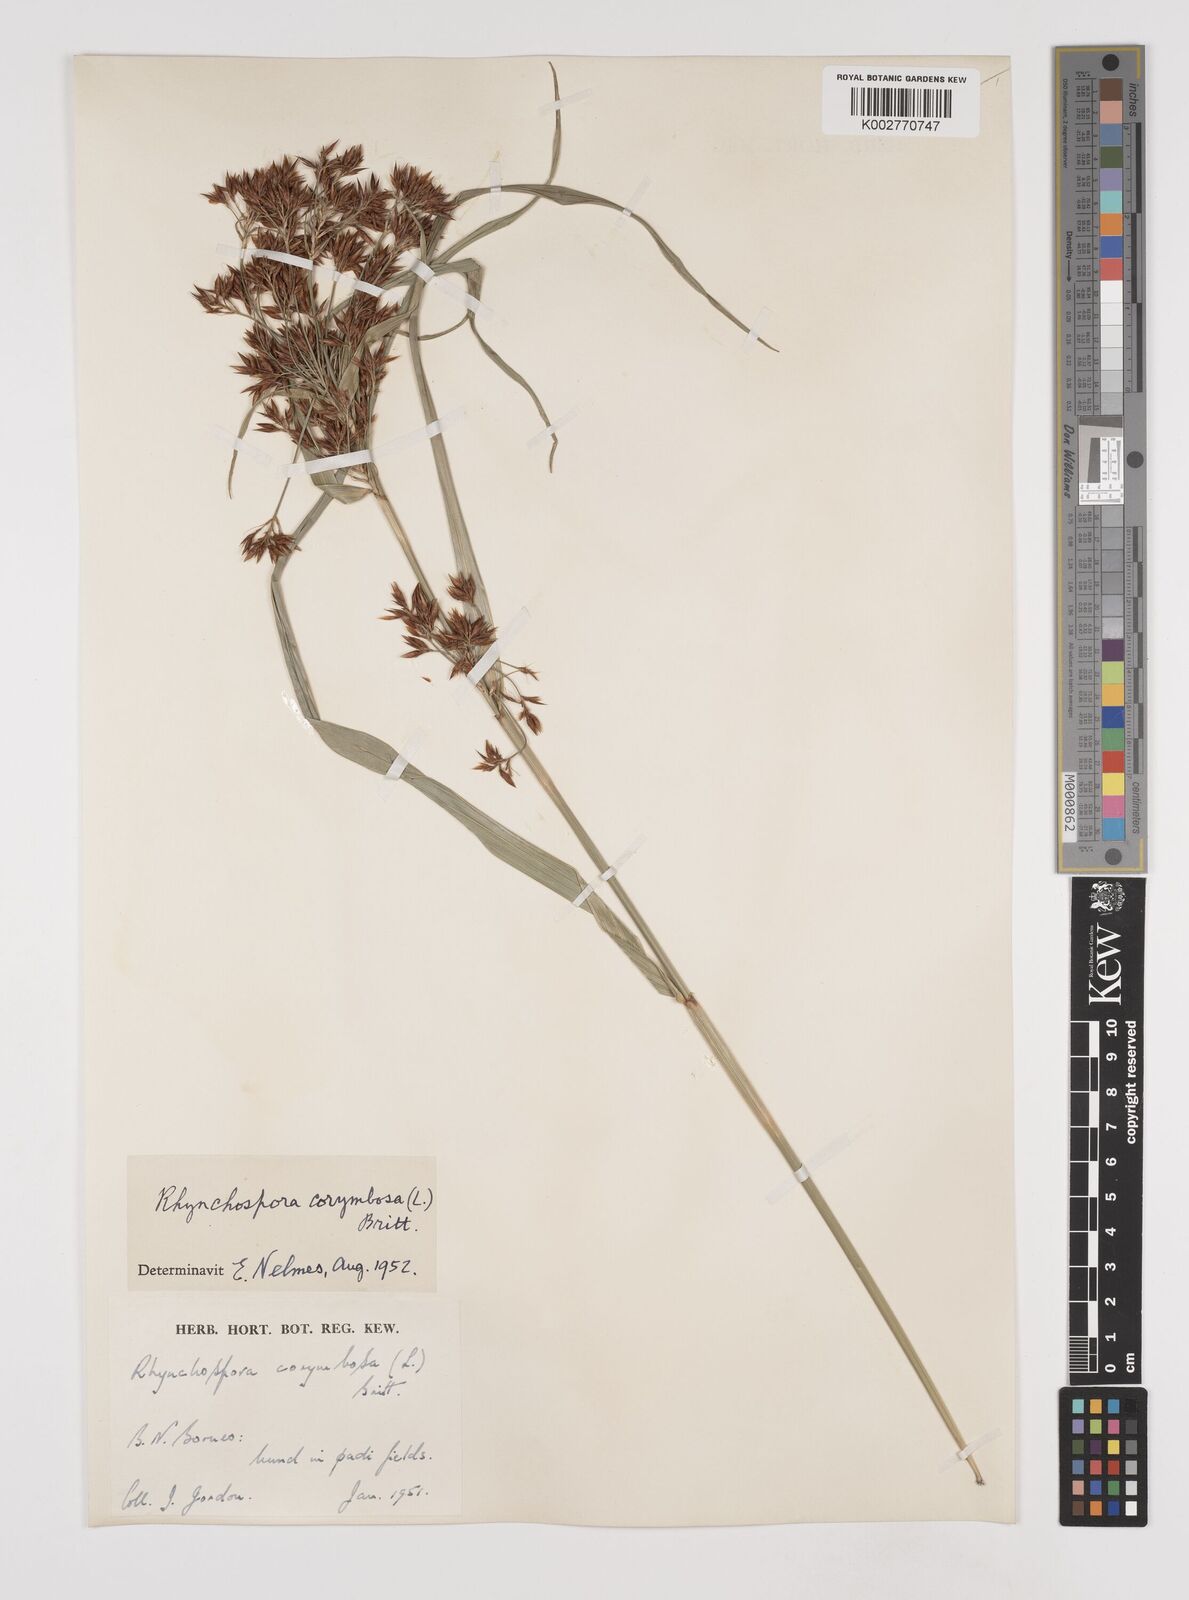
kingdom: Plantae
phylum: Tracheophyta
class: Liliopsida
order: Poales
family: Cyperaceae
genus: Rhynchospora
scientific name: Rhynchospora corymbosa
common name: Golden beak sedge
